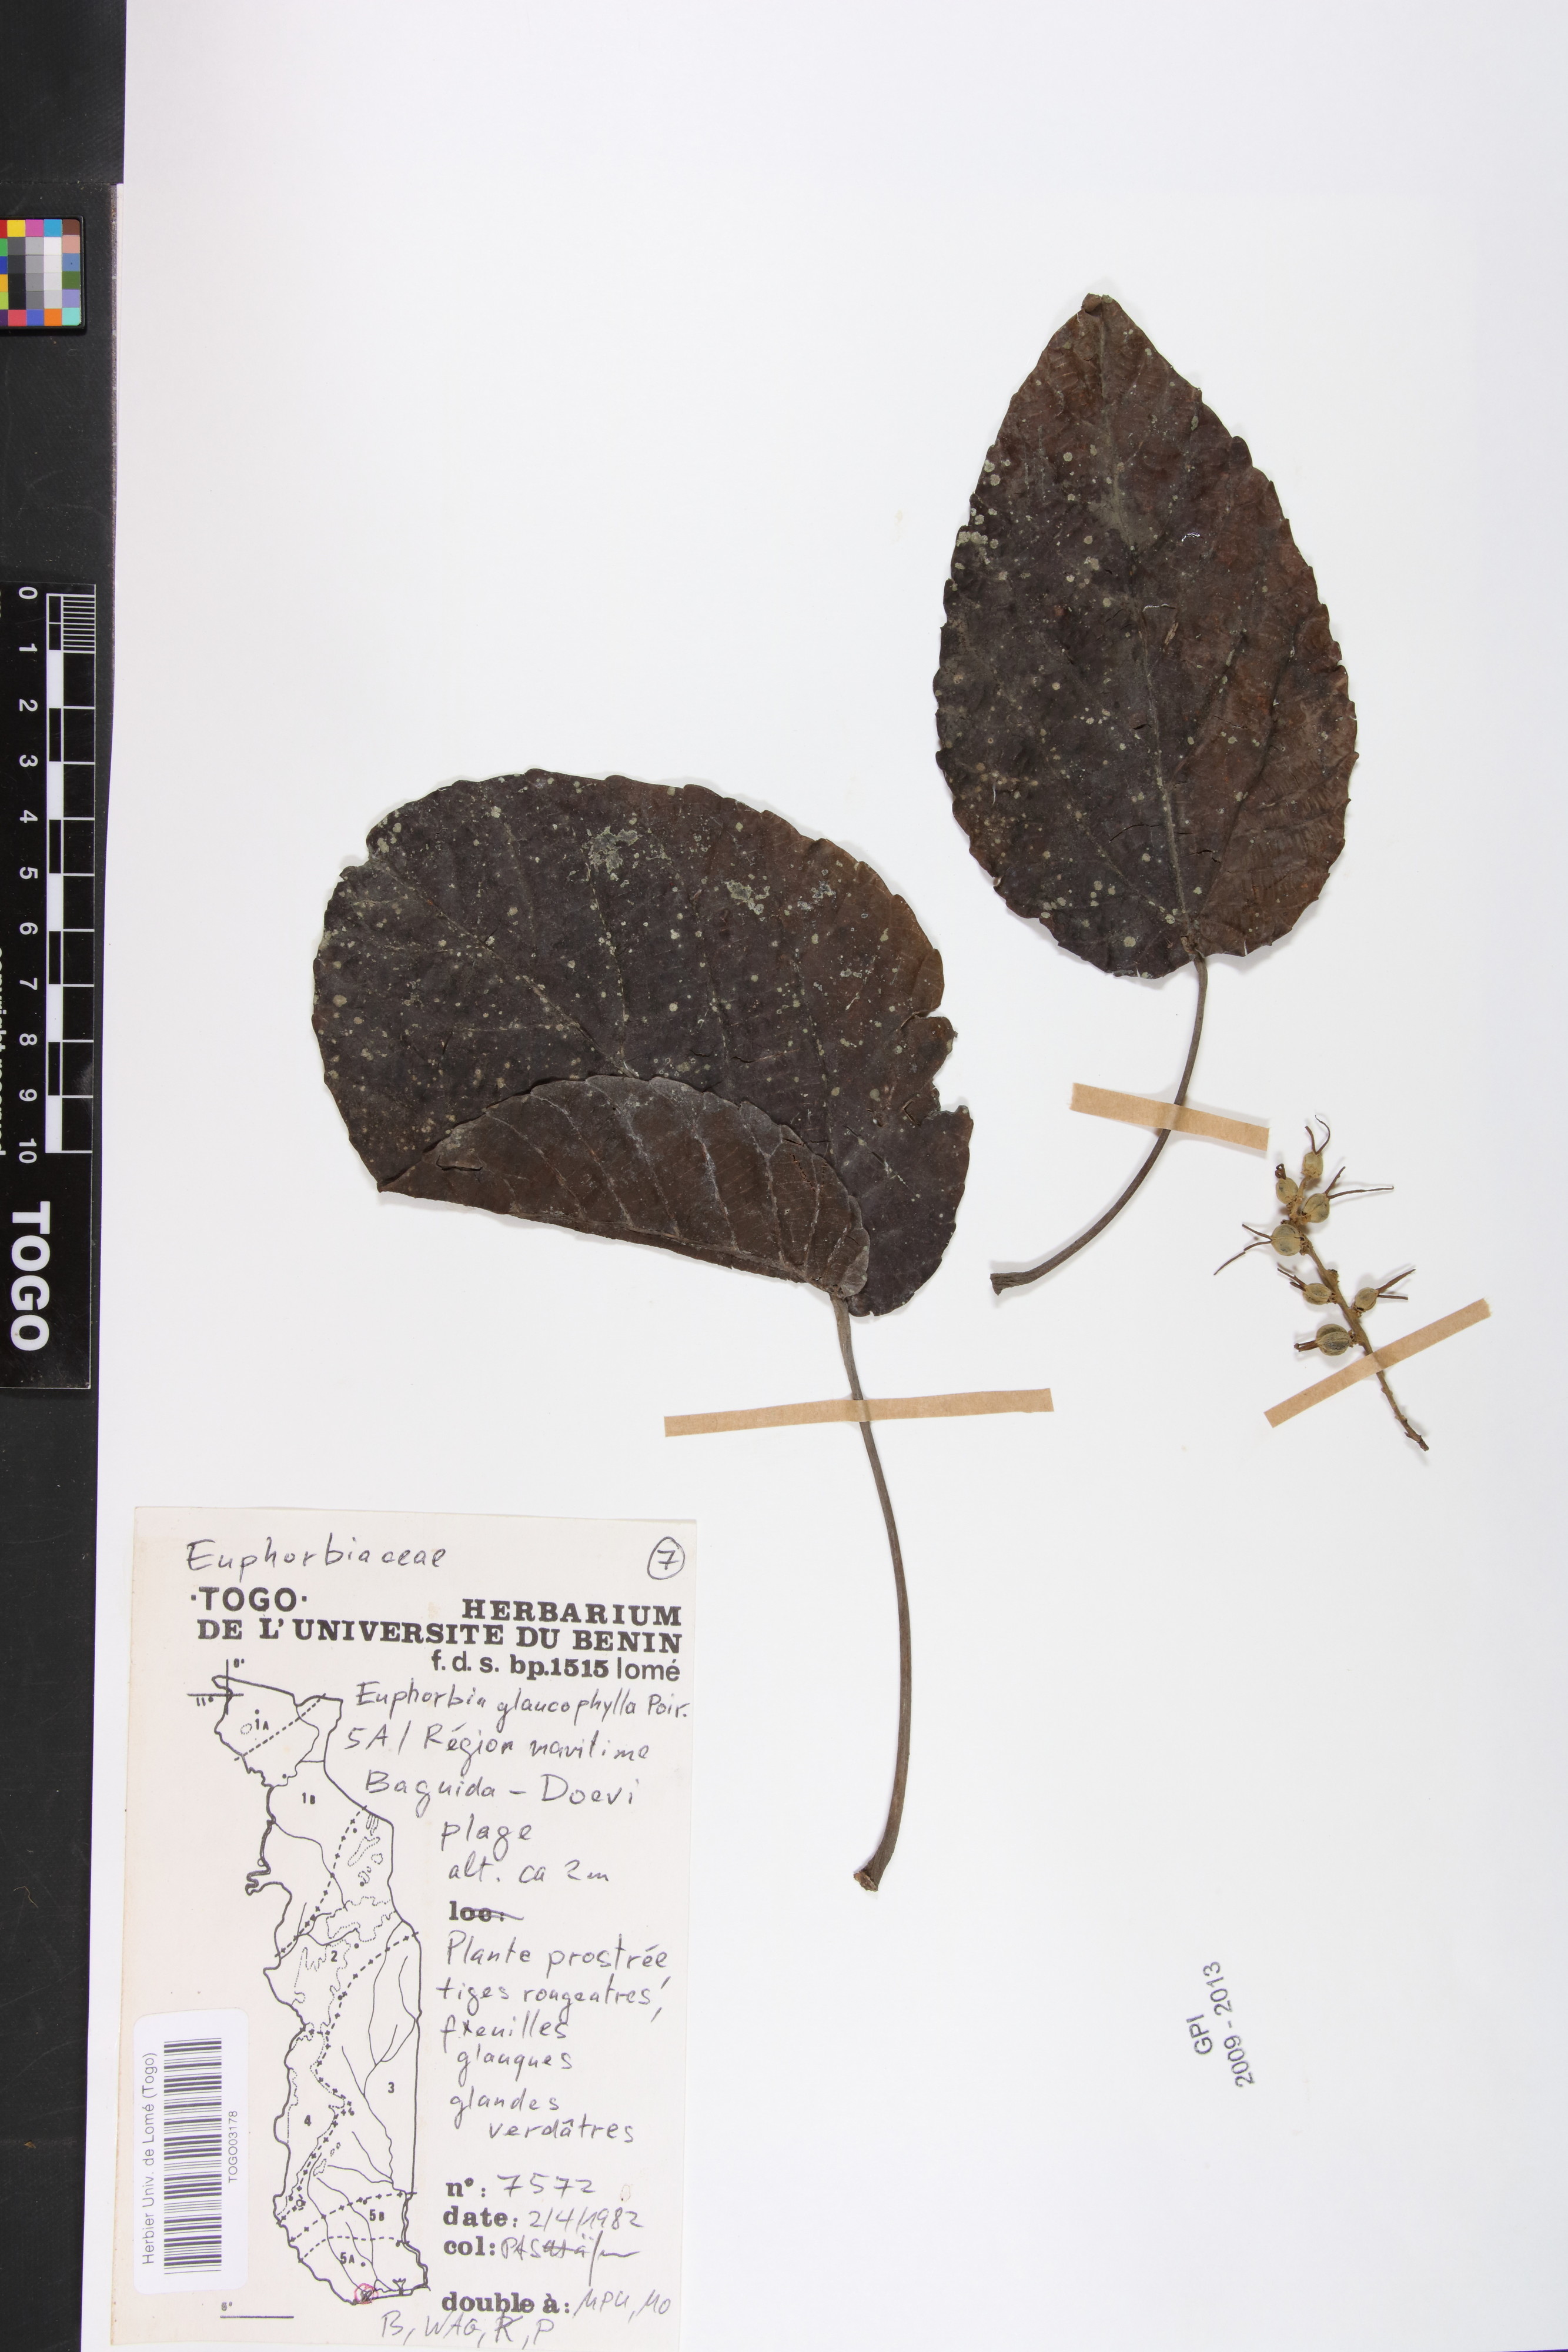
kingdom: Plantae
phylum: Tracheophyta
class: Magnoliopsida
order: Malpighiales
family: Euphorbiaceae
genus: Euphorbia
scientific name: Euphorbia glaucophylla
